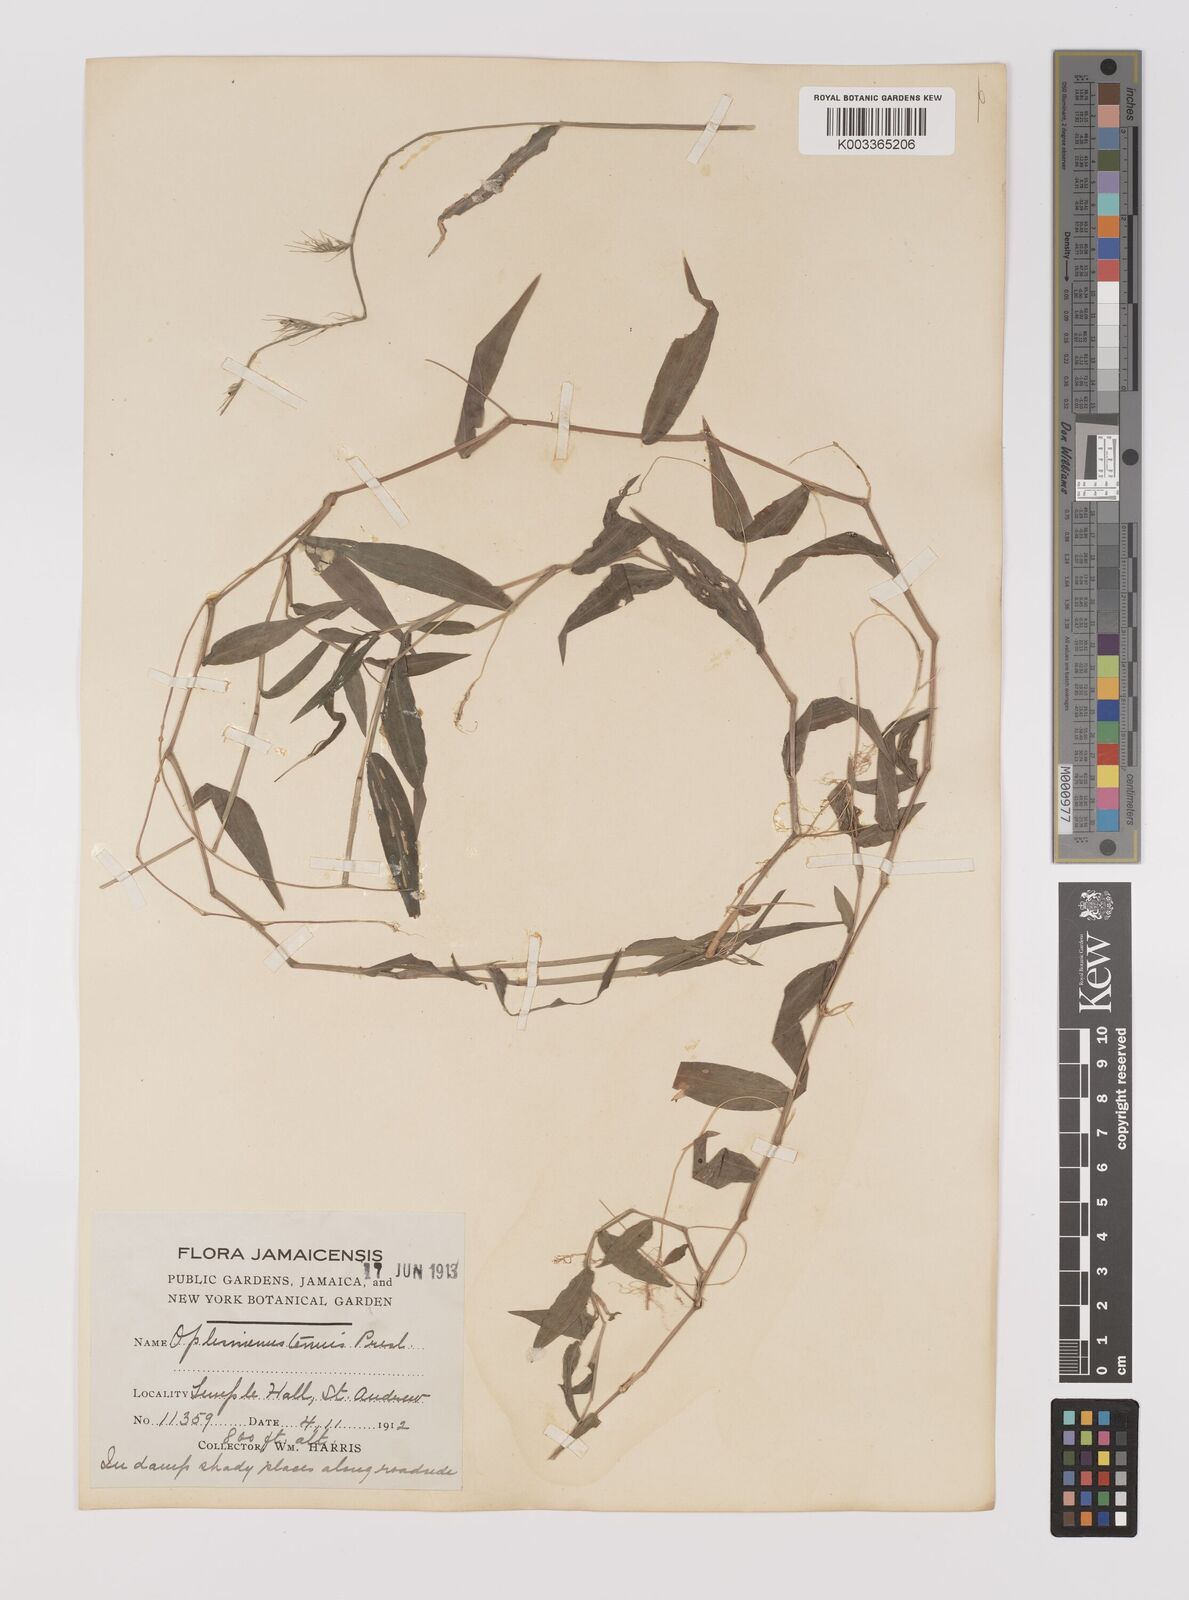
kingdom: Plantae
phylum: Tracheophyta
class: Liliopsida
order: Poales
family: Poaceae
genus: Oplismenus
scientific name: Oplismenus hirtellus
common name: Basketgrass
